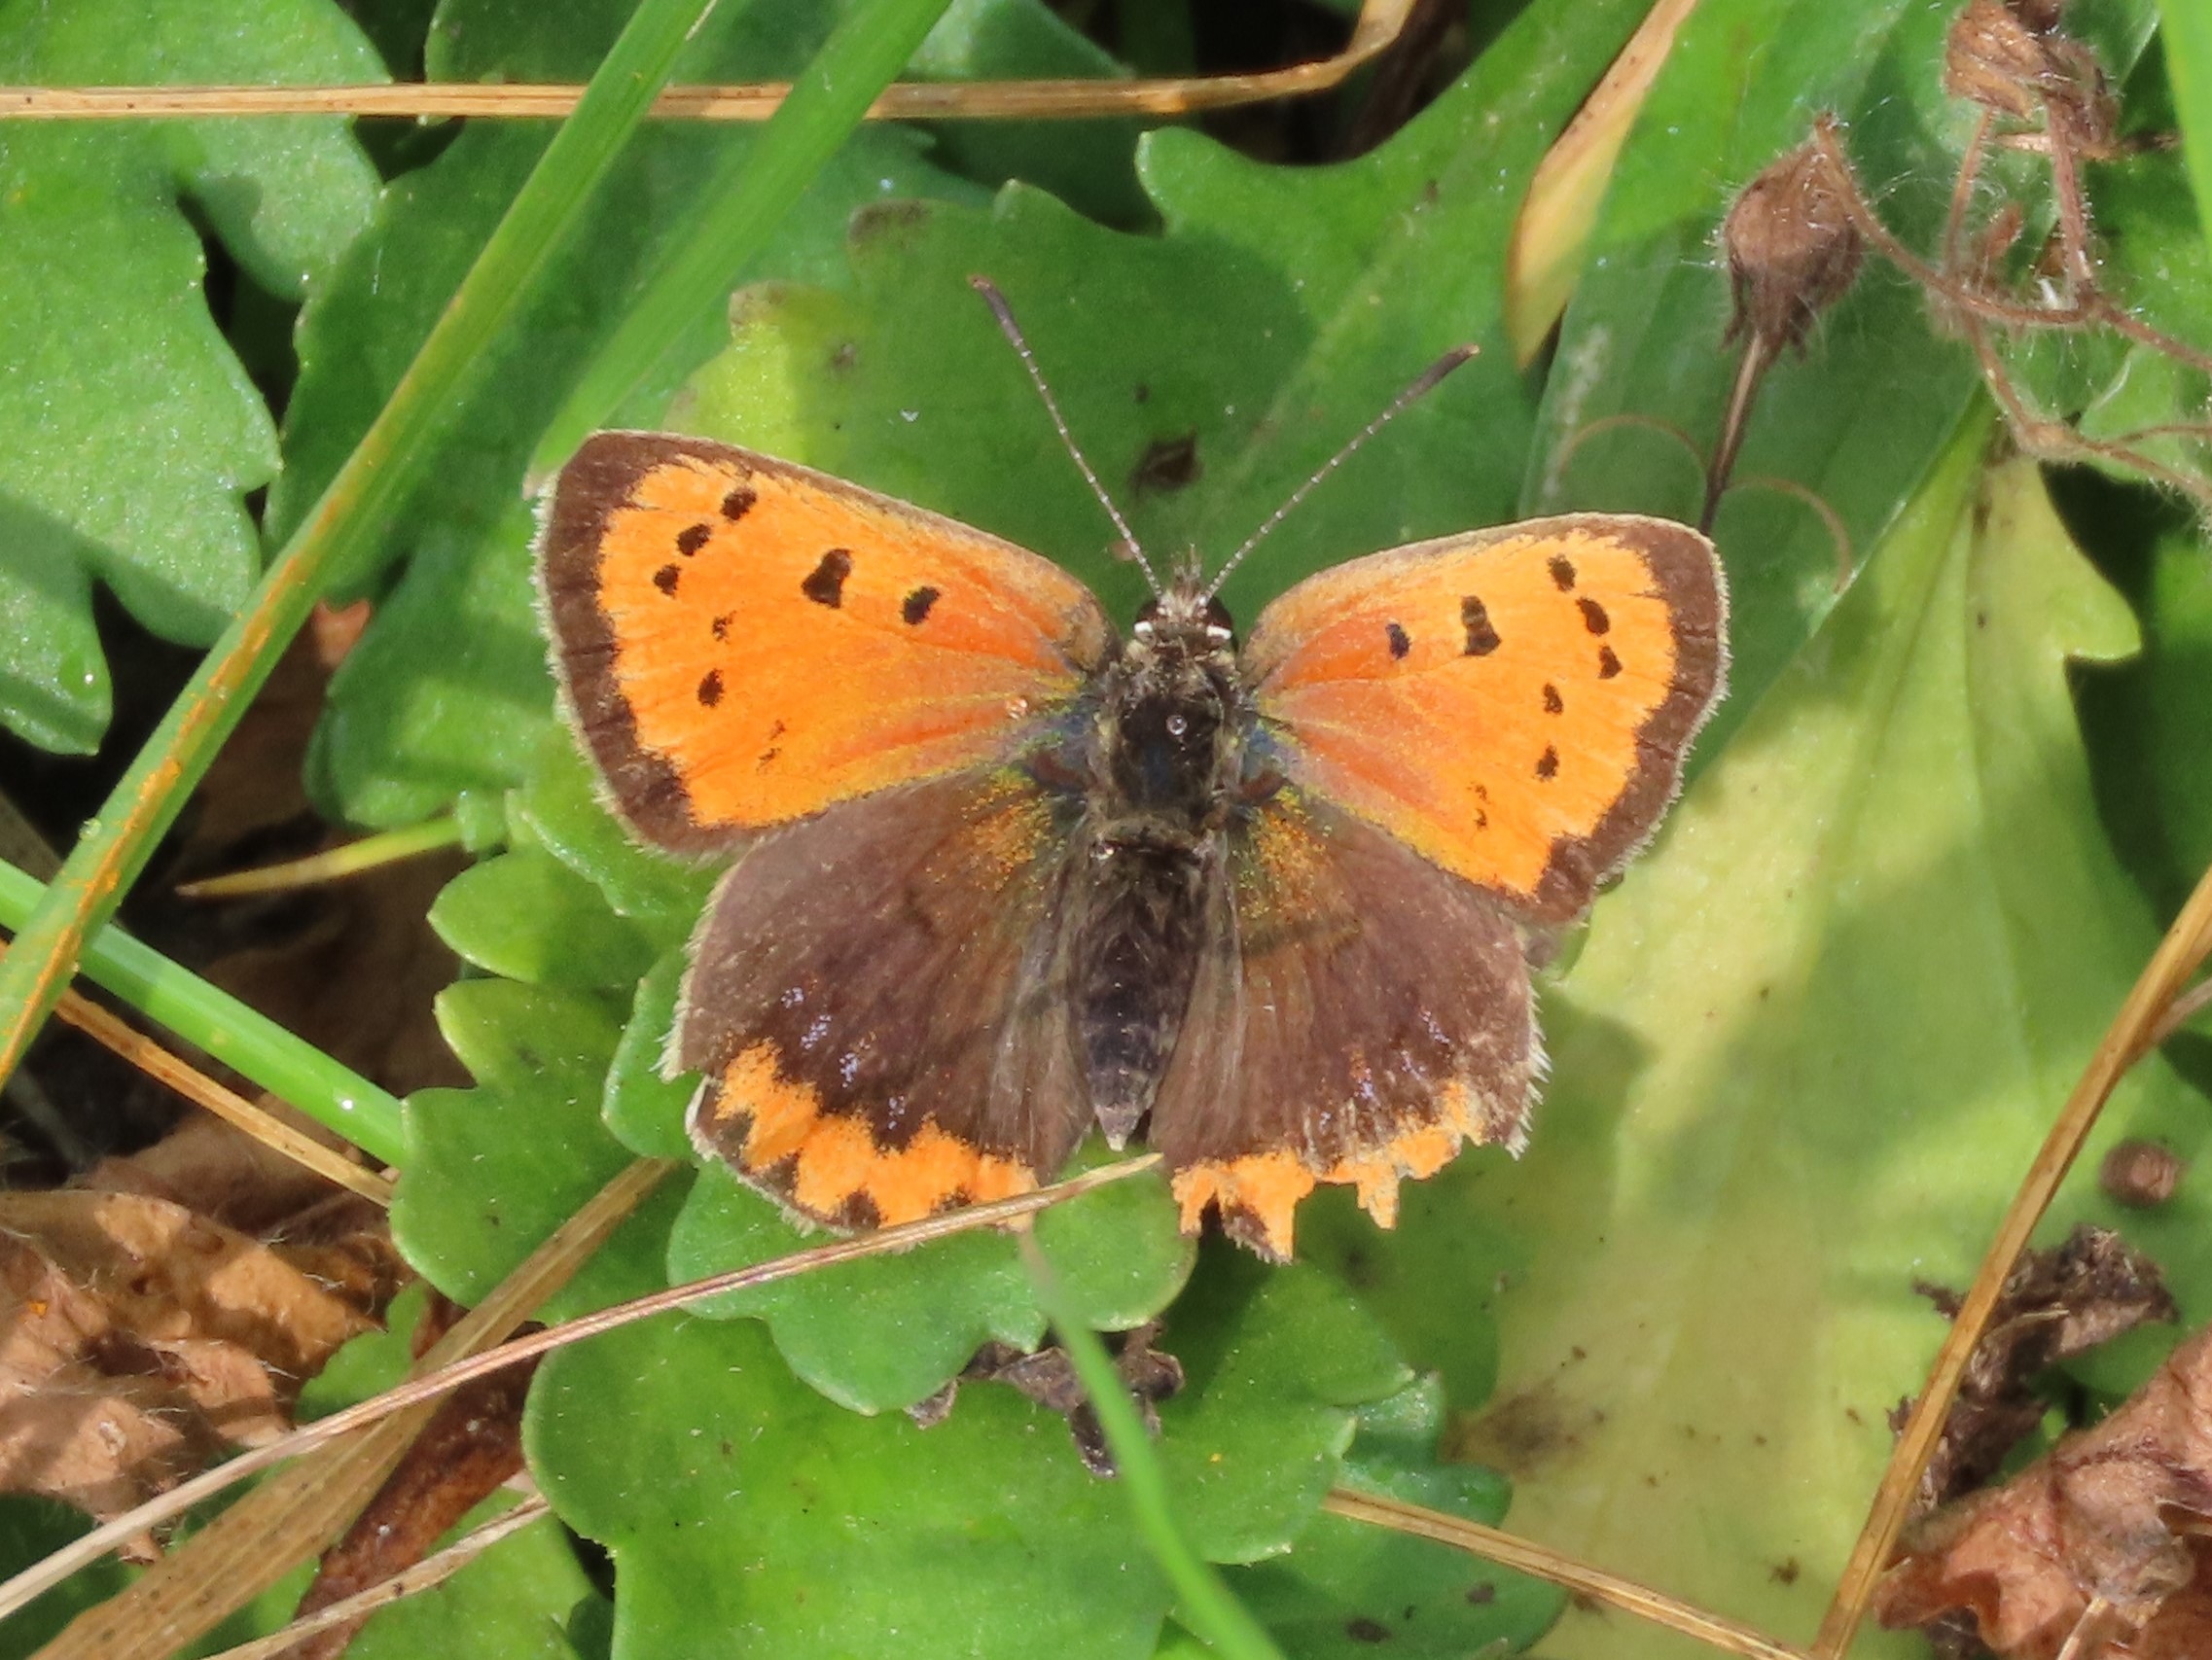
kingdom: Animalia
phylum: Arthropoda
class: Insecta
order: Lepidoptera
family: Lycaenidae
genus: Lycaena
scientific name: Lycaena phlaeas
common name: Lille ildfugl
